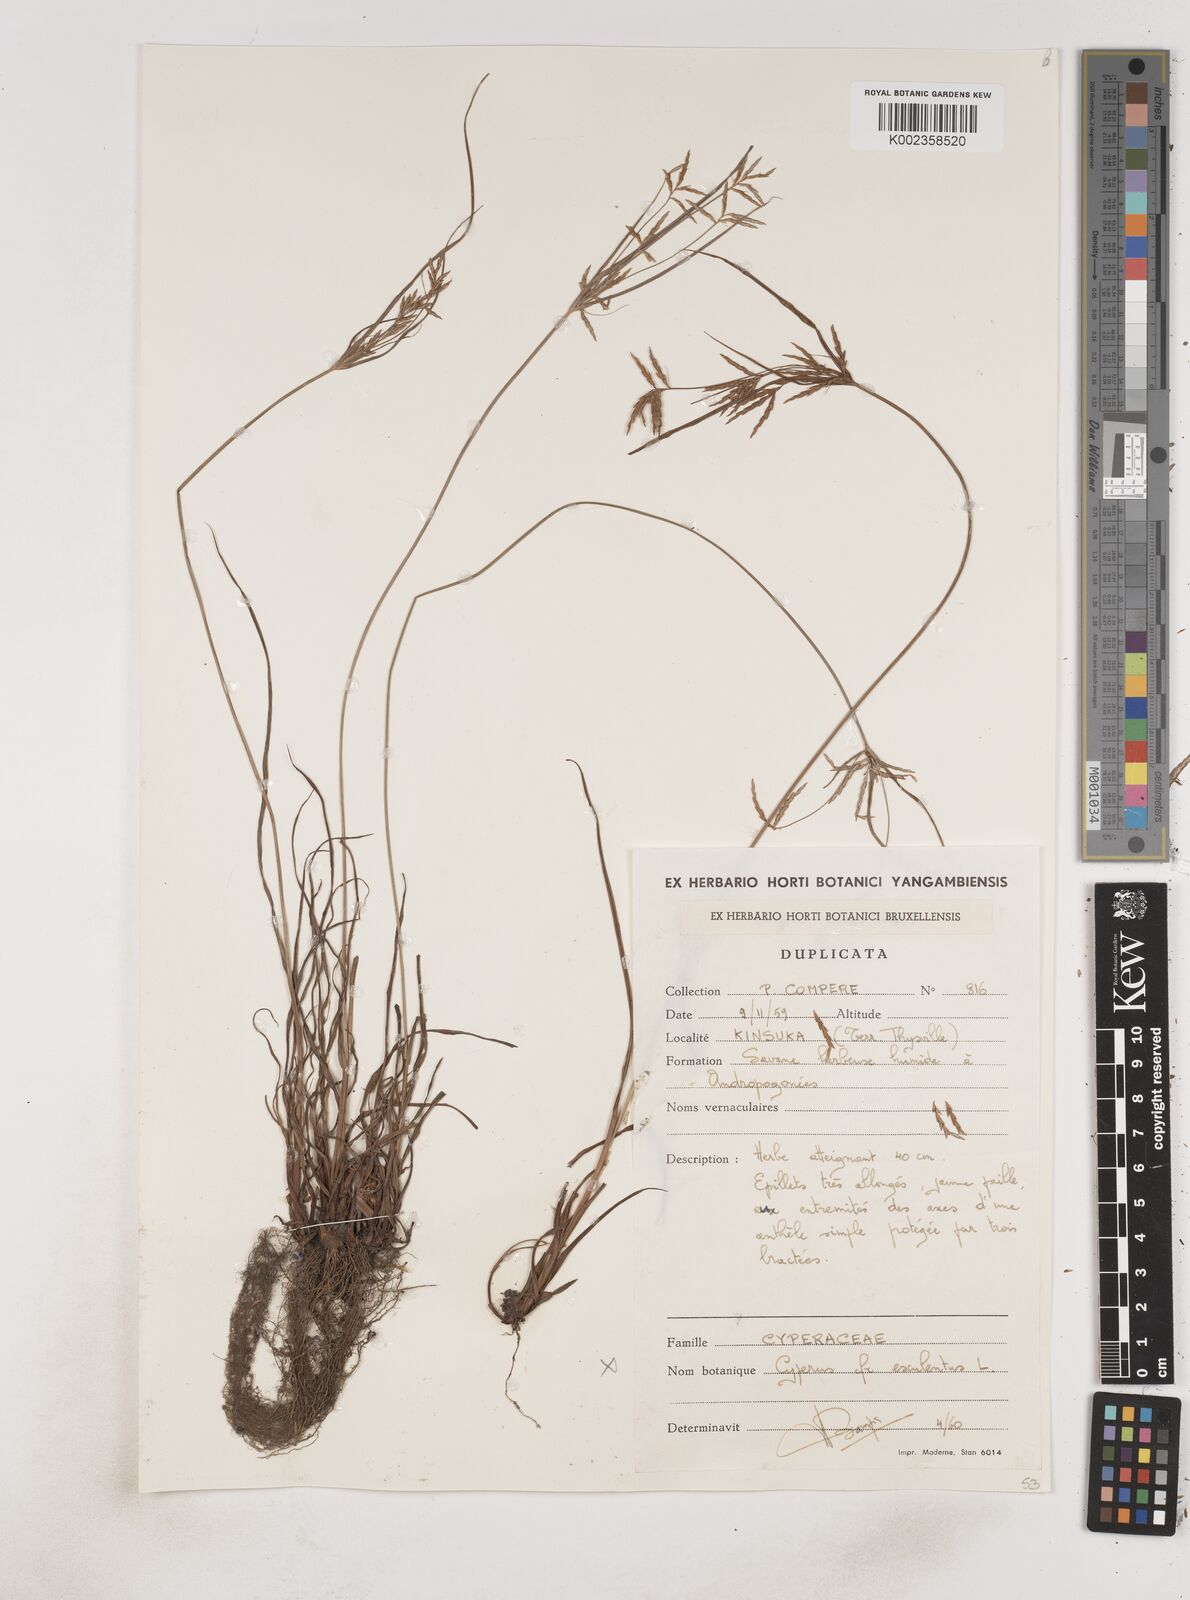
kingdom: Plantae
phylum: Tracheophyta
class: Liliopsida
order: Poales
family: Cyperaceae
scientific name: Cyperaceae
